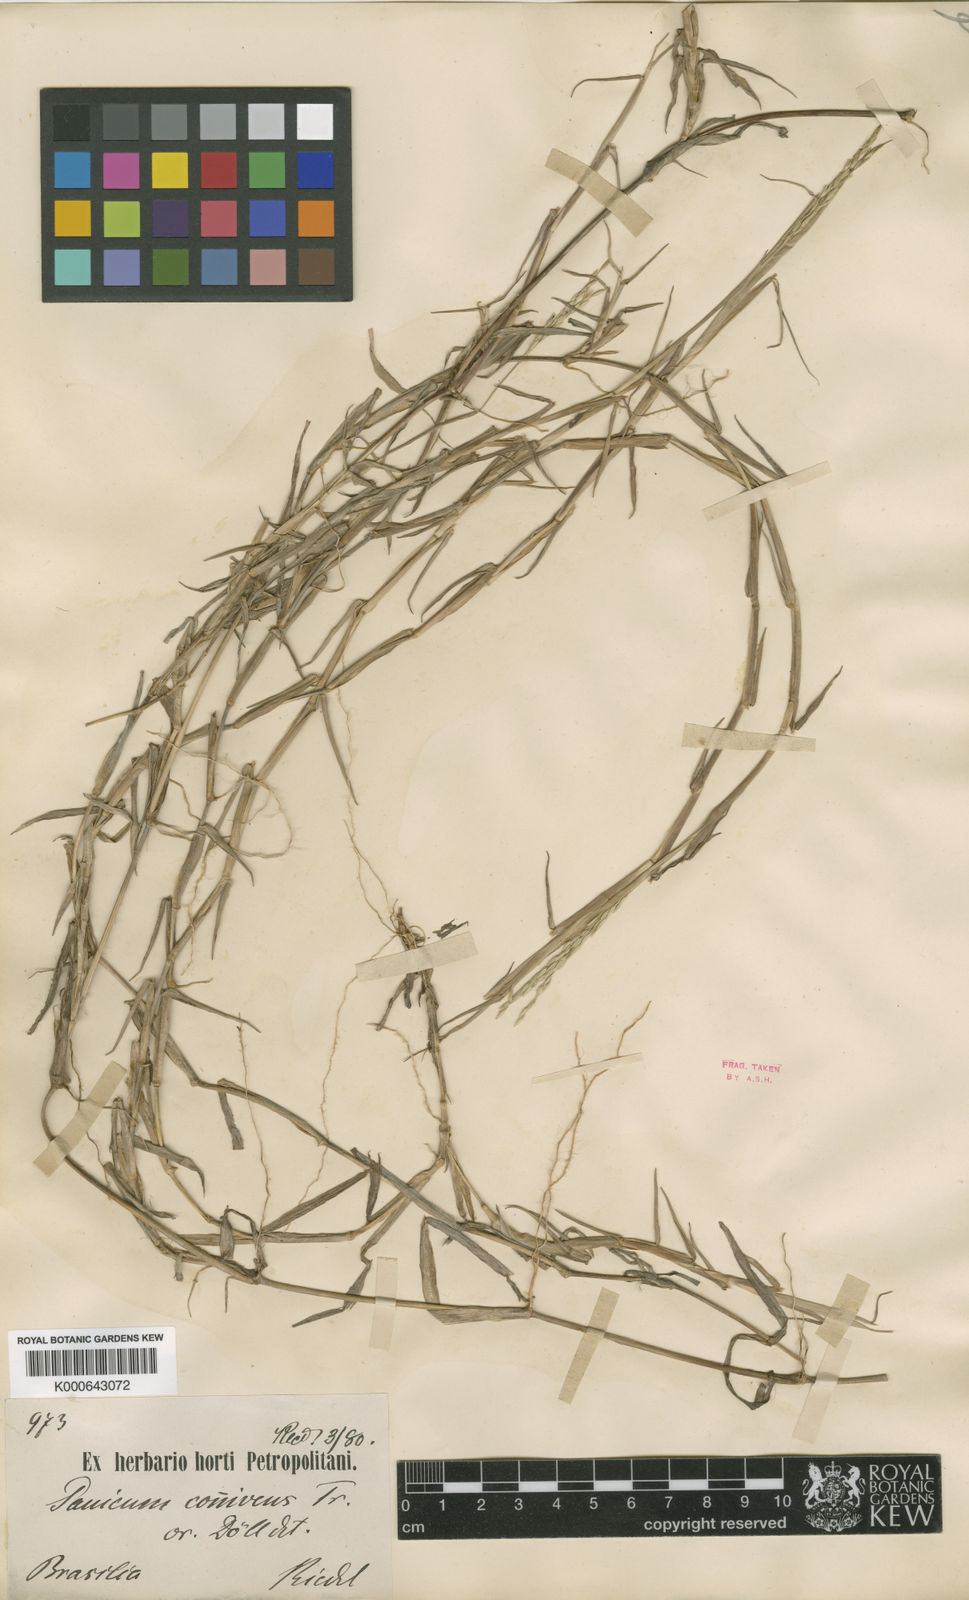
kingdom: Plantae
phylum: Tracheophyta
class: Liliopsida
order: Poales
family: Poaceae
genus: Digitaria
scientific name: Digitaria connivens
